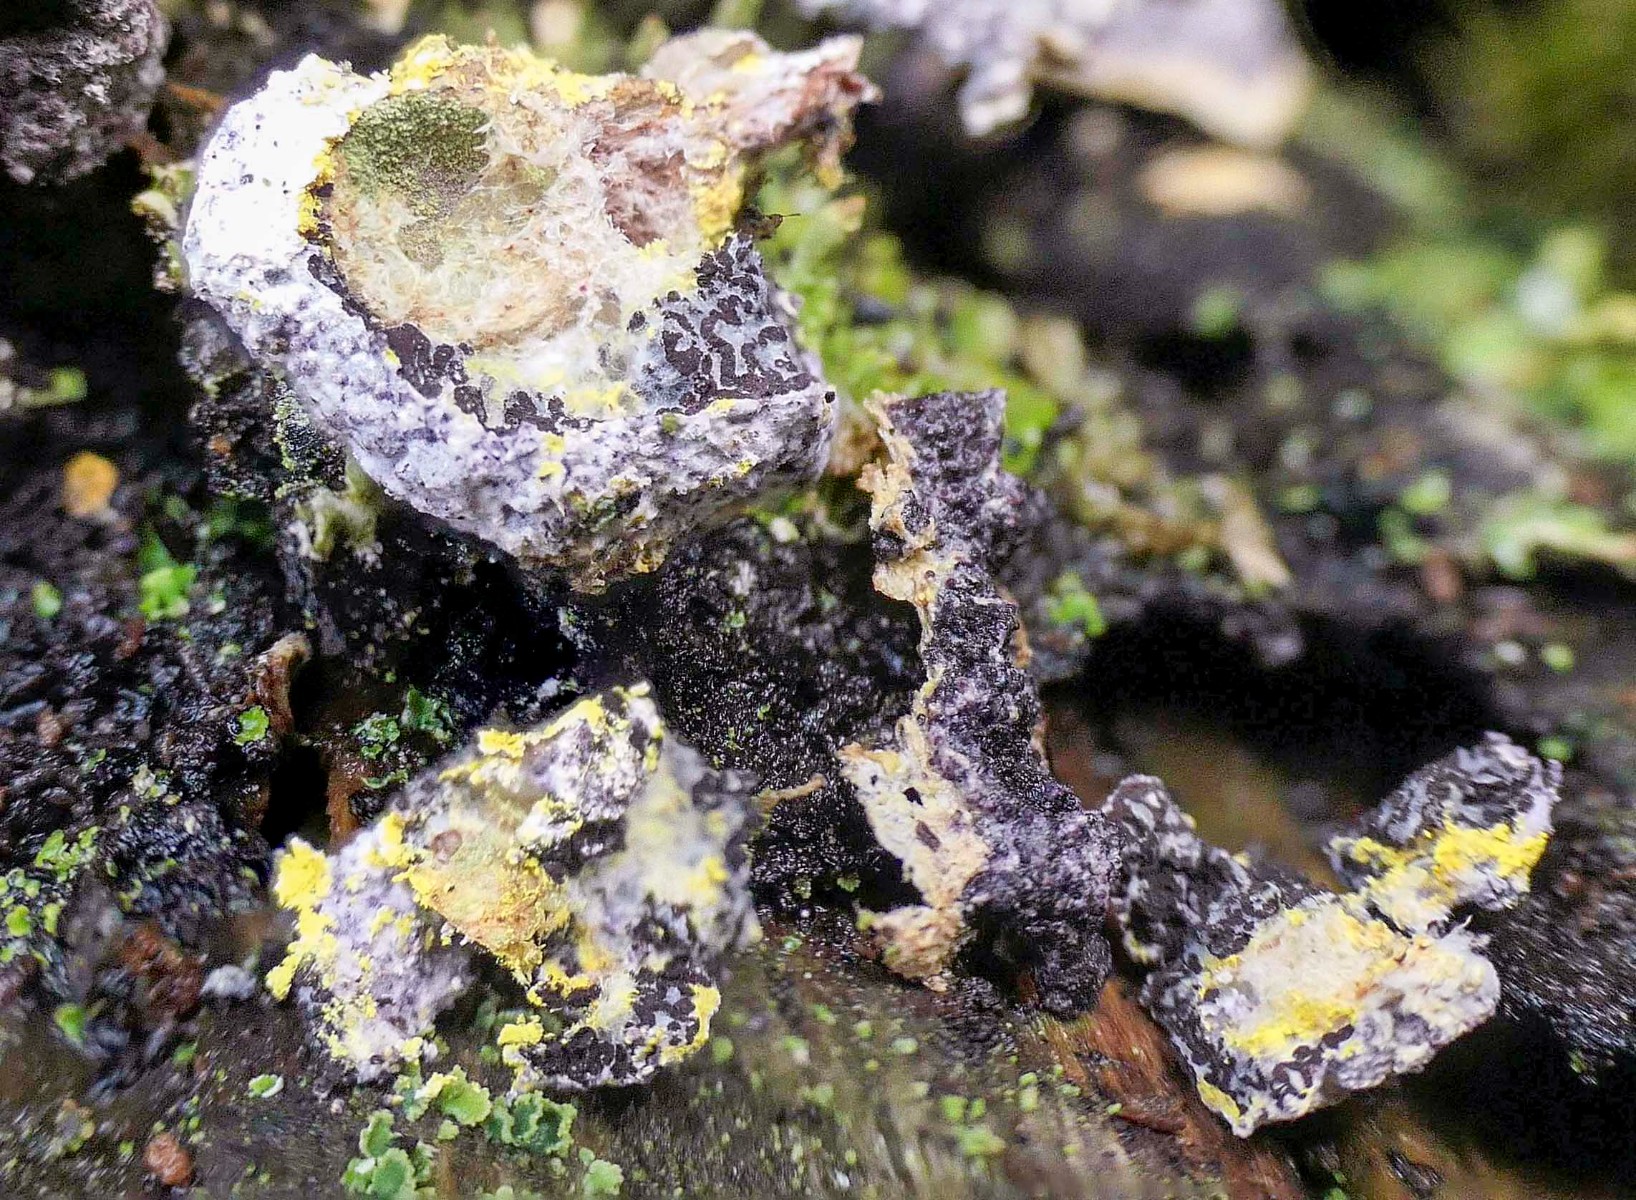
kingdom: Fungi
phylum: Ascomycota
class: Sordariomycetes
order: Hypocreales
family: Bionectriaceae
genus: Nectriopsis
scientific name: Nectriopsis violacea
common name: violet snyltespind
